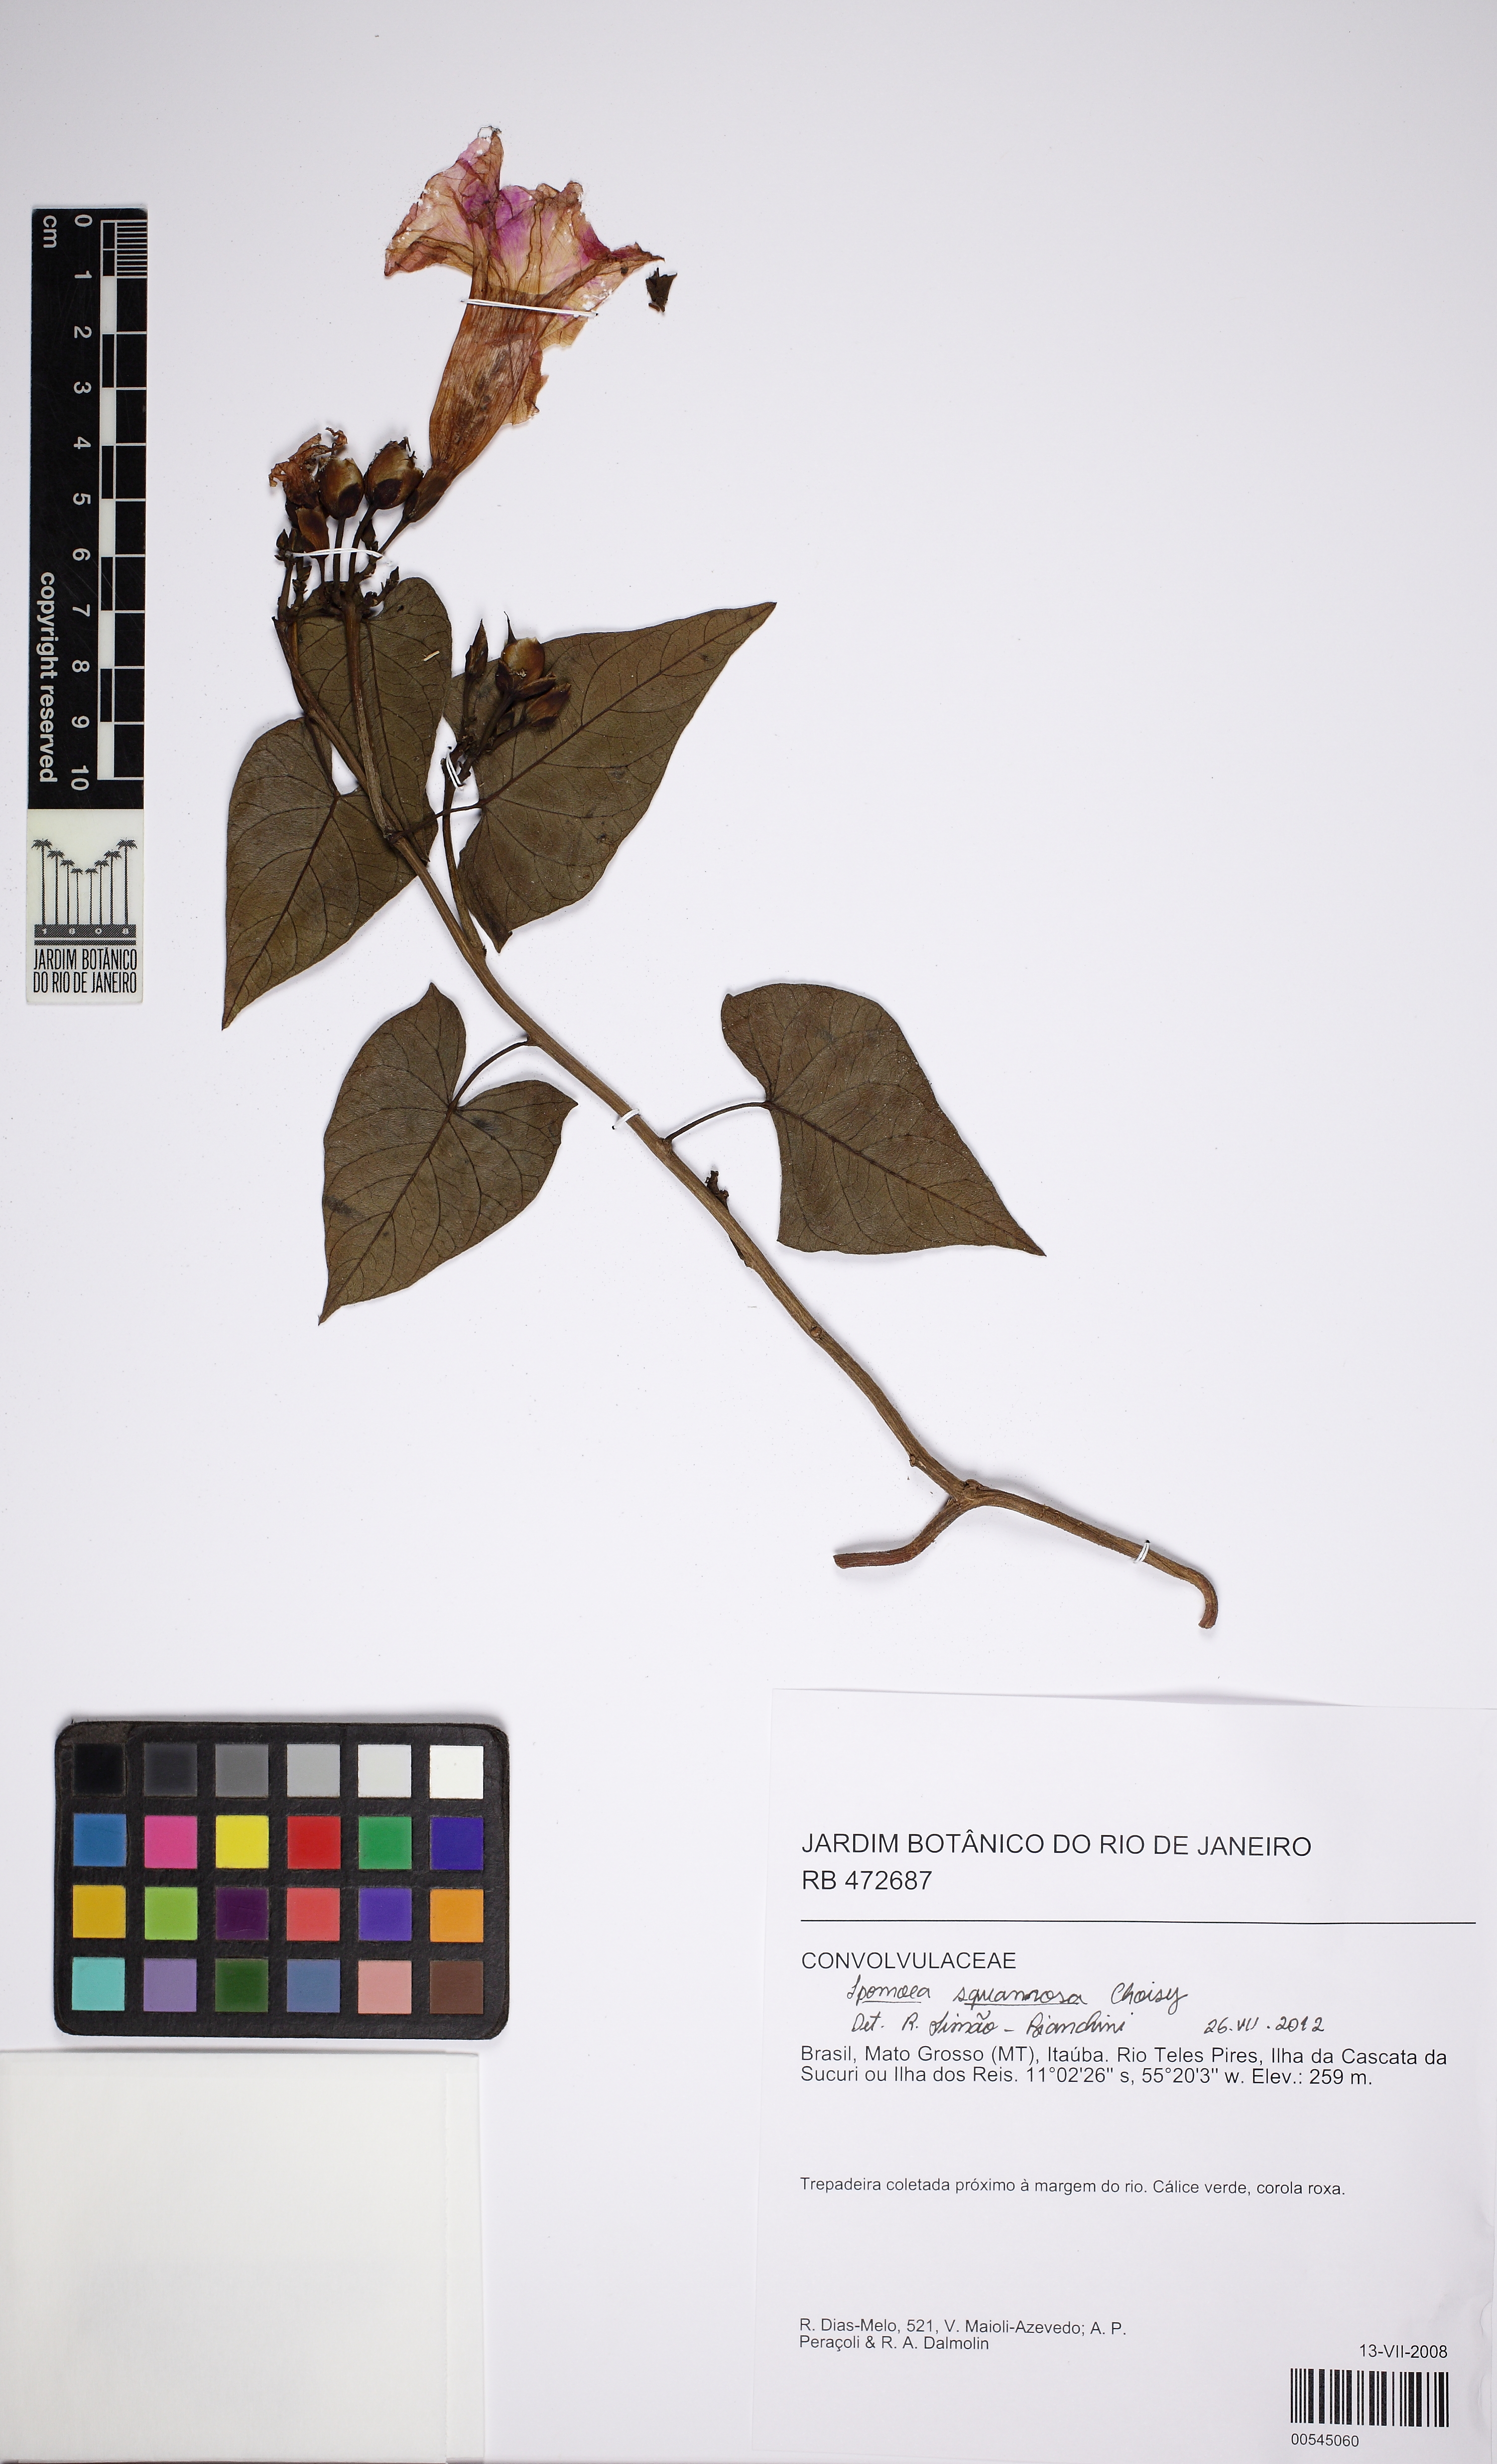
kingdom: Plantae
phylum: Tracheophyta
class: Magnoliopsida
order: Solanales
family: Convolvulaceae
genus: Ipomoea
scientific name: Ipomoea squamosa
